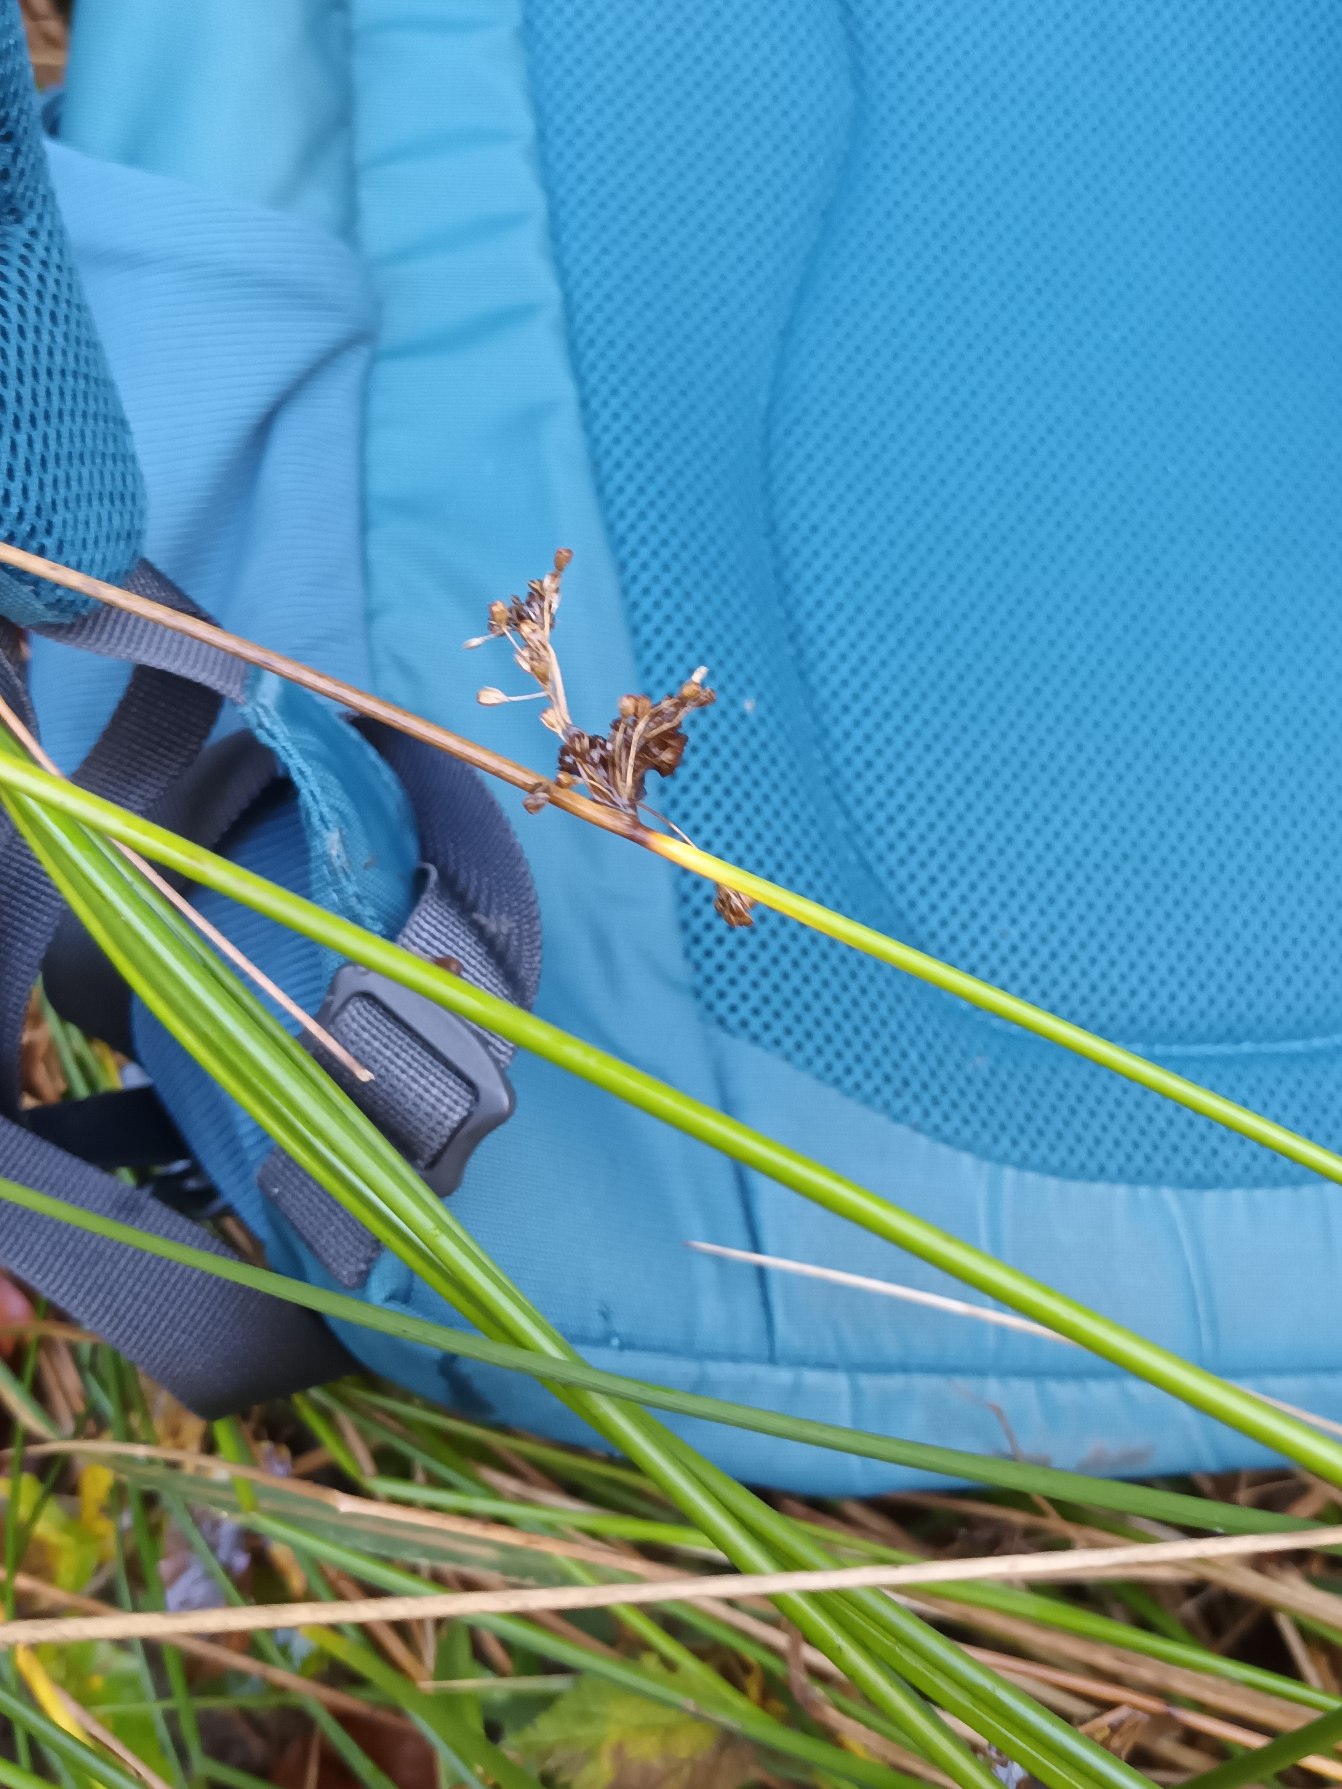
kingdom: Plantae
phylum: Tracheophyta
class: Liliopsida
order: Poales
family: Juncaceae
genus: Juncus
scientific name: Juncus effusus
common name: Lyse-siv
